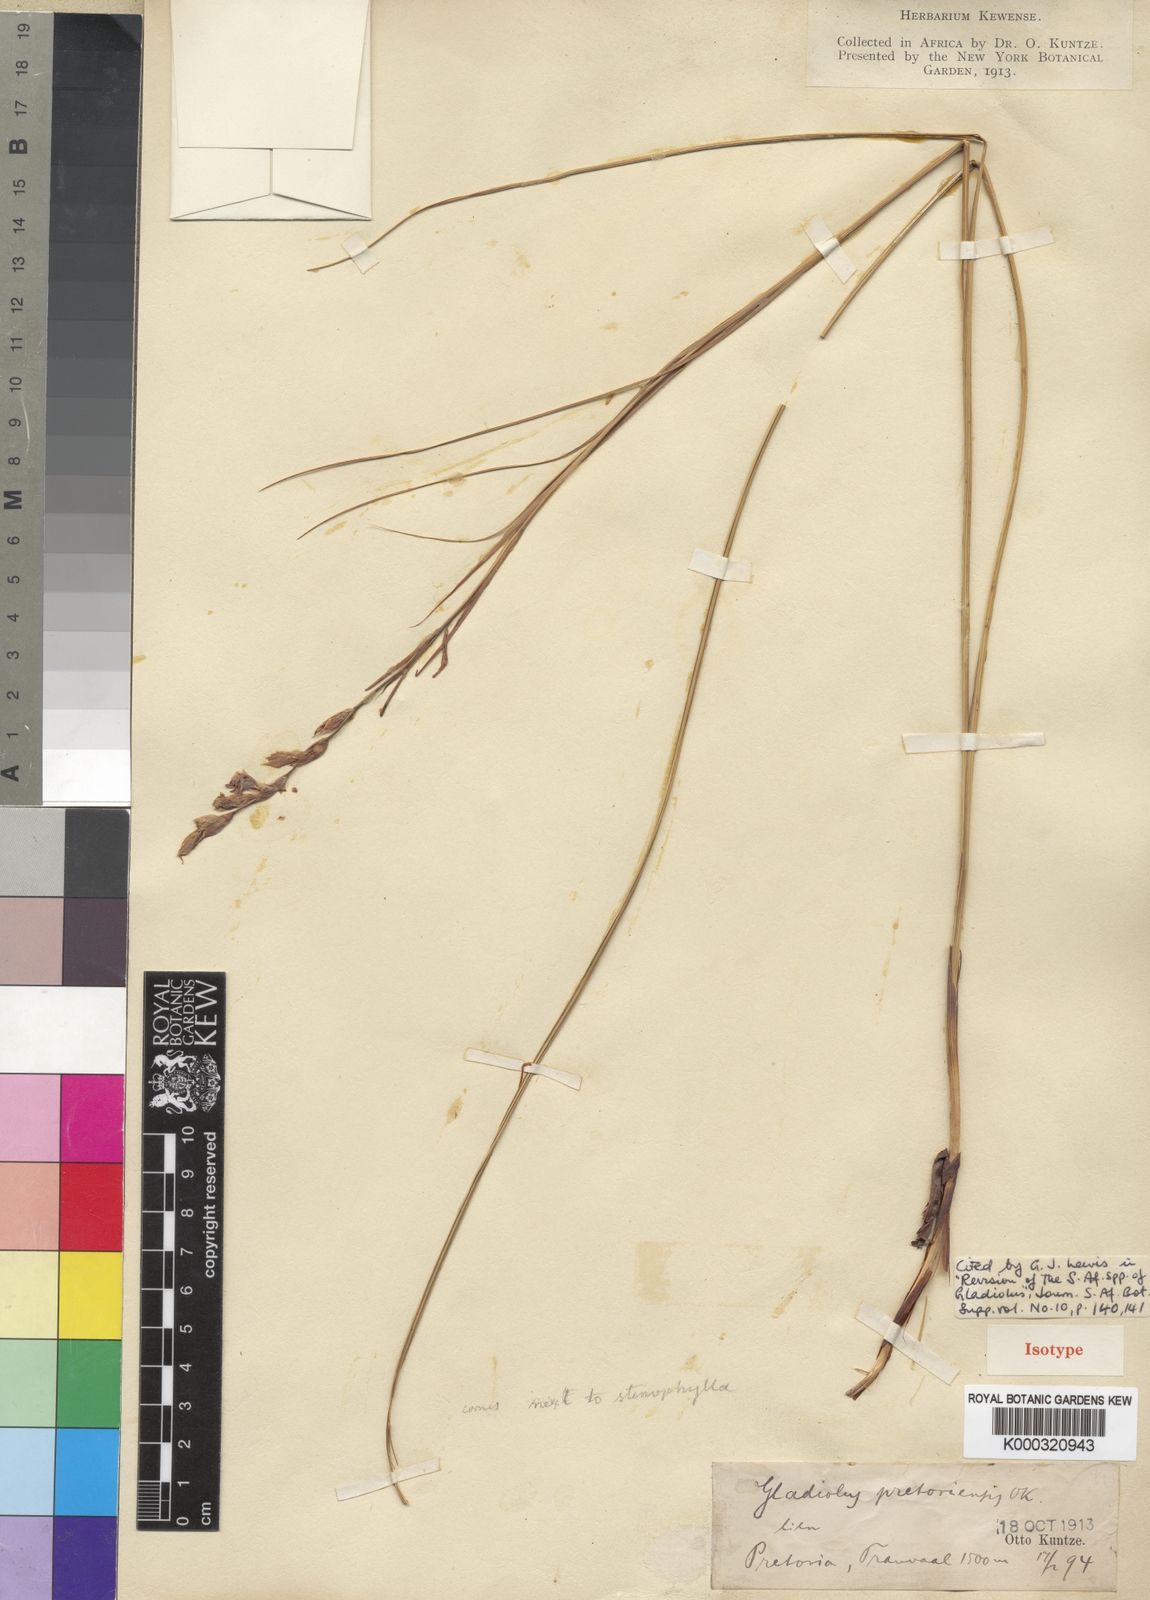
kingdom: Plantae
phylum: Tracheophyta
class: Liliopsida
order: Asparagales
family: Iridaceae
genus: Gladiolus
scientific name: Gladiolus pretoriensis
